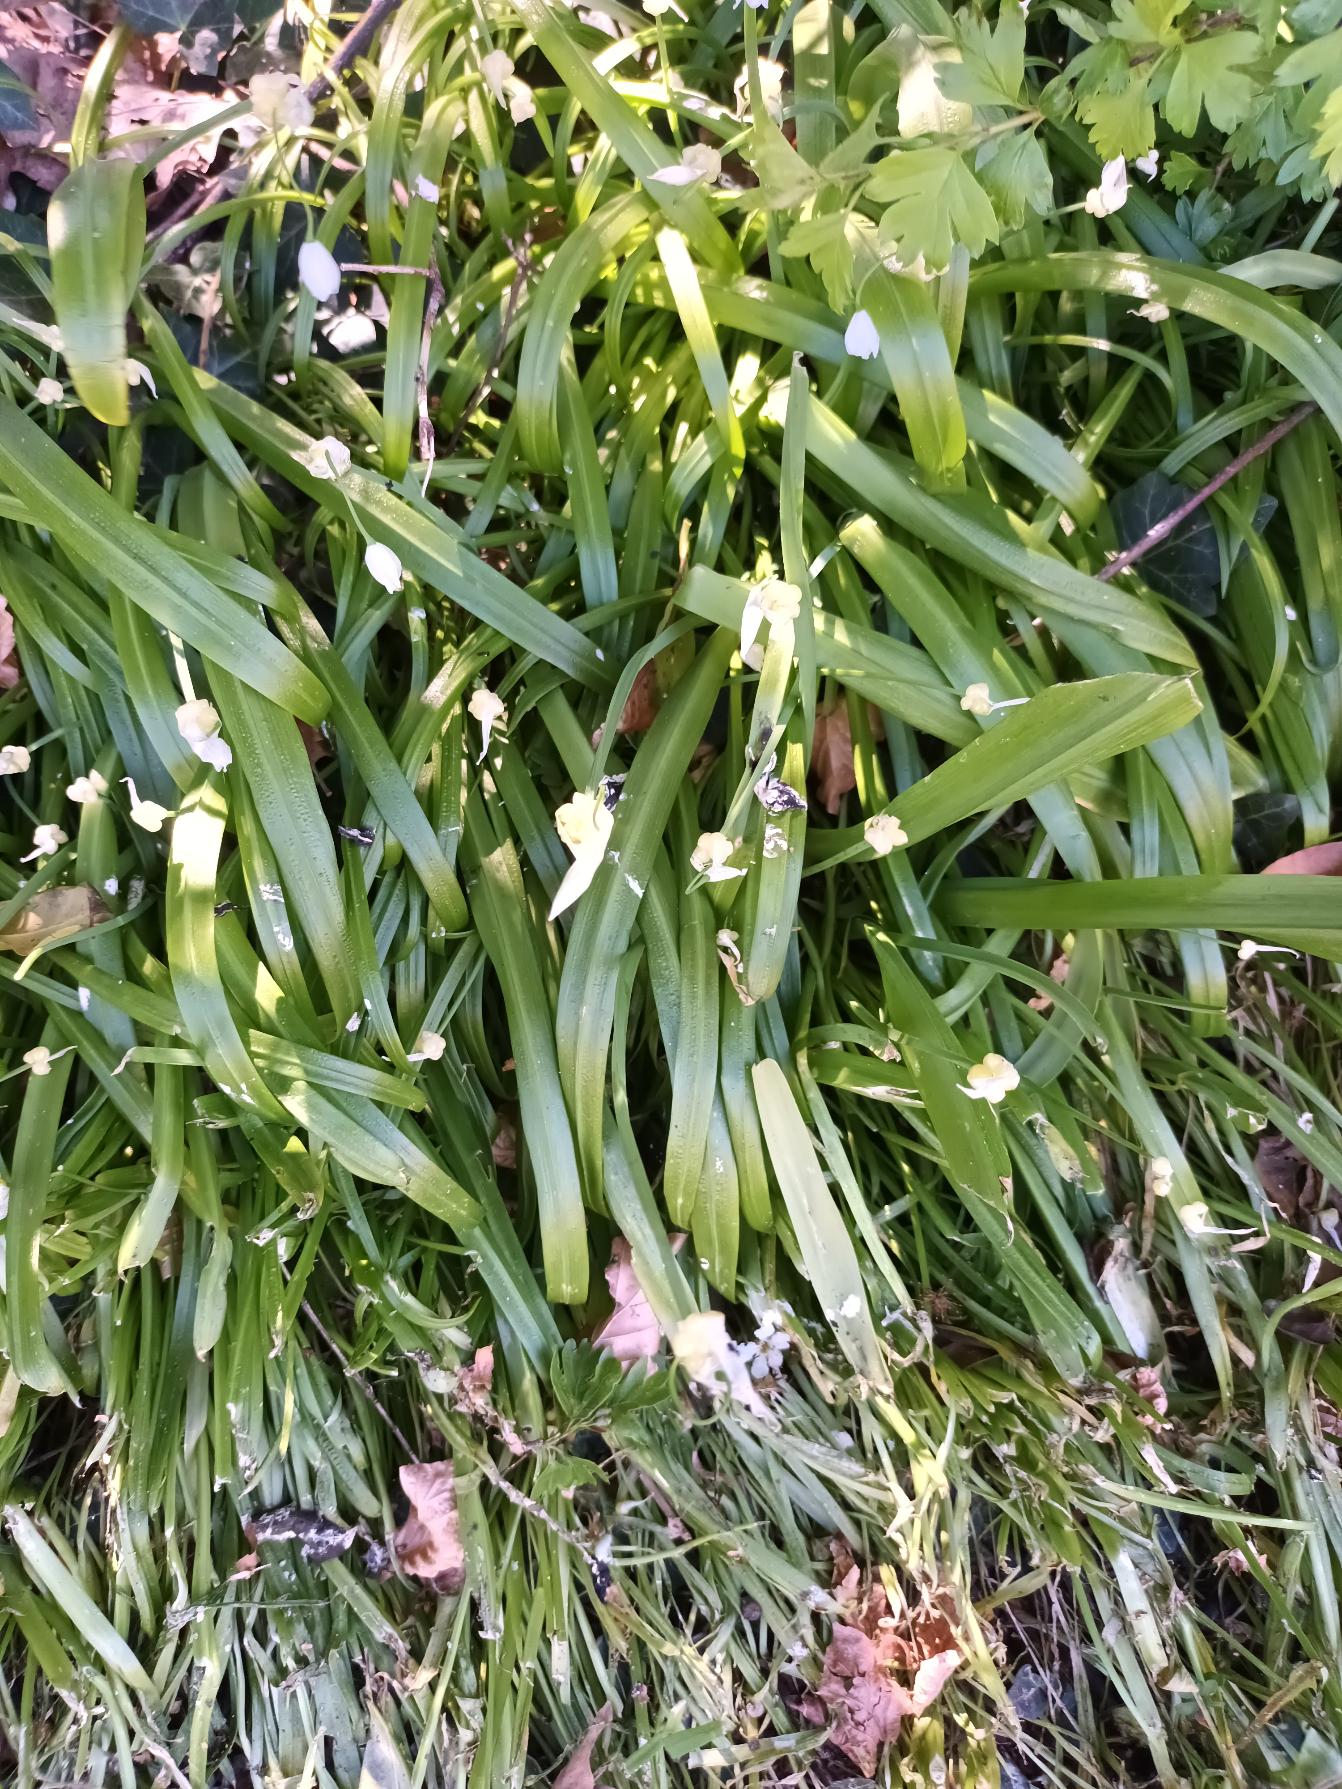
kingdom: Plantae
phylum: Tracheophyta
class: Liliopsida
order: Asparagales
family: Amaryllidaceae
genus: Allium
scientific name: Allium paradoxum
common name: Spøjs løg
